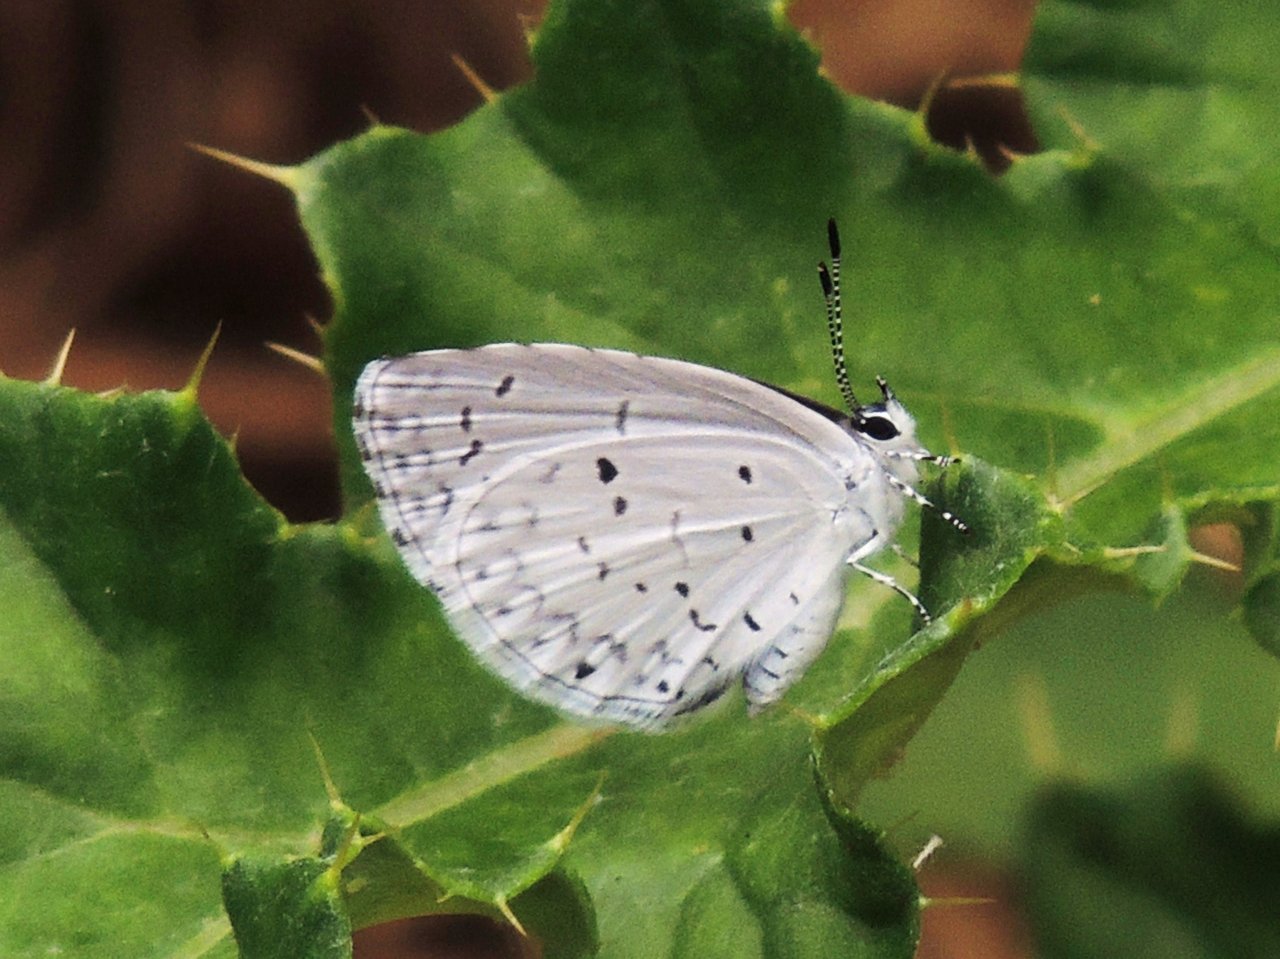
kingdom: Animalia
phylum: Arthropoda
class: Insecta
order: Lepidoptera
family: Lycaenidae
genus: Celastrina
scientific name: Celastrina
